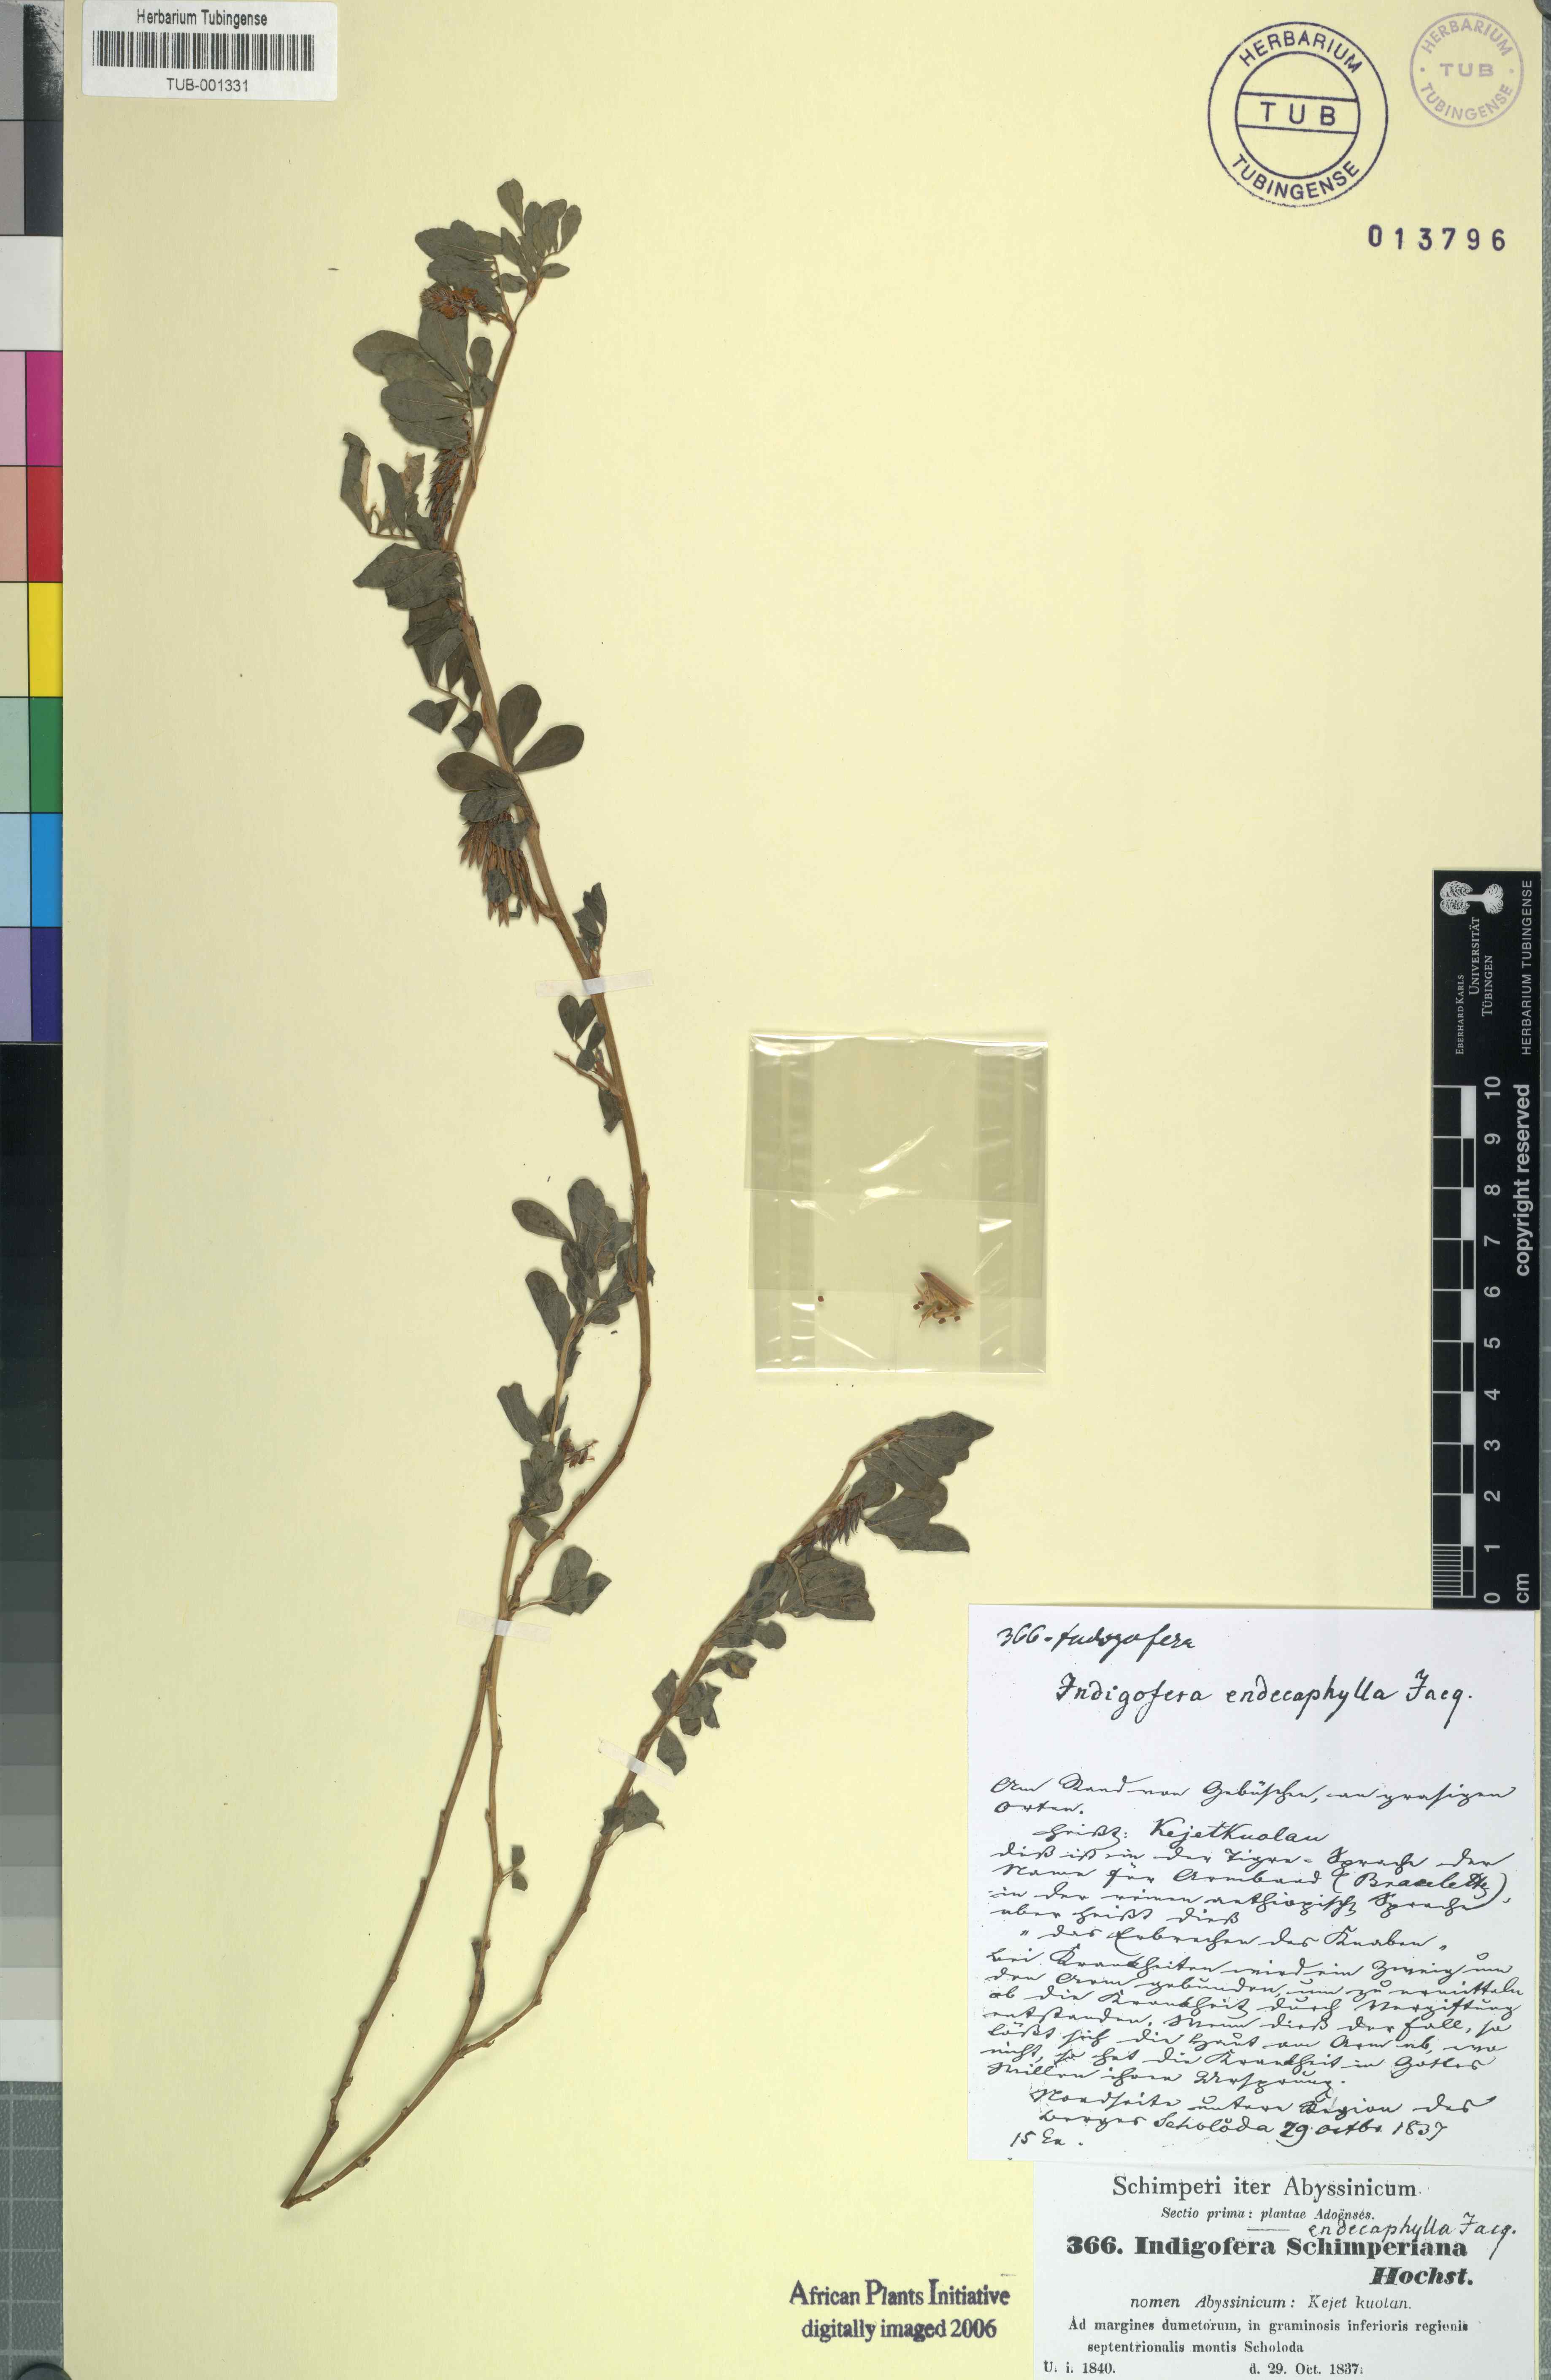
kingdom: Plantae
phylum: Tracheophyta
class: Magnoliopsida
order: Fabales
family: Fabaceae
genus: Indigofera
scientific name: Indigofera hendecaphylla
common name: Trailing indigo
